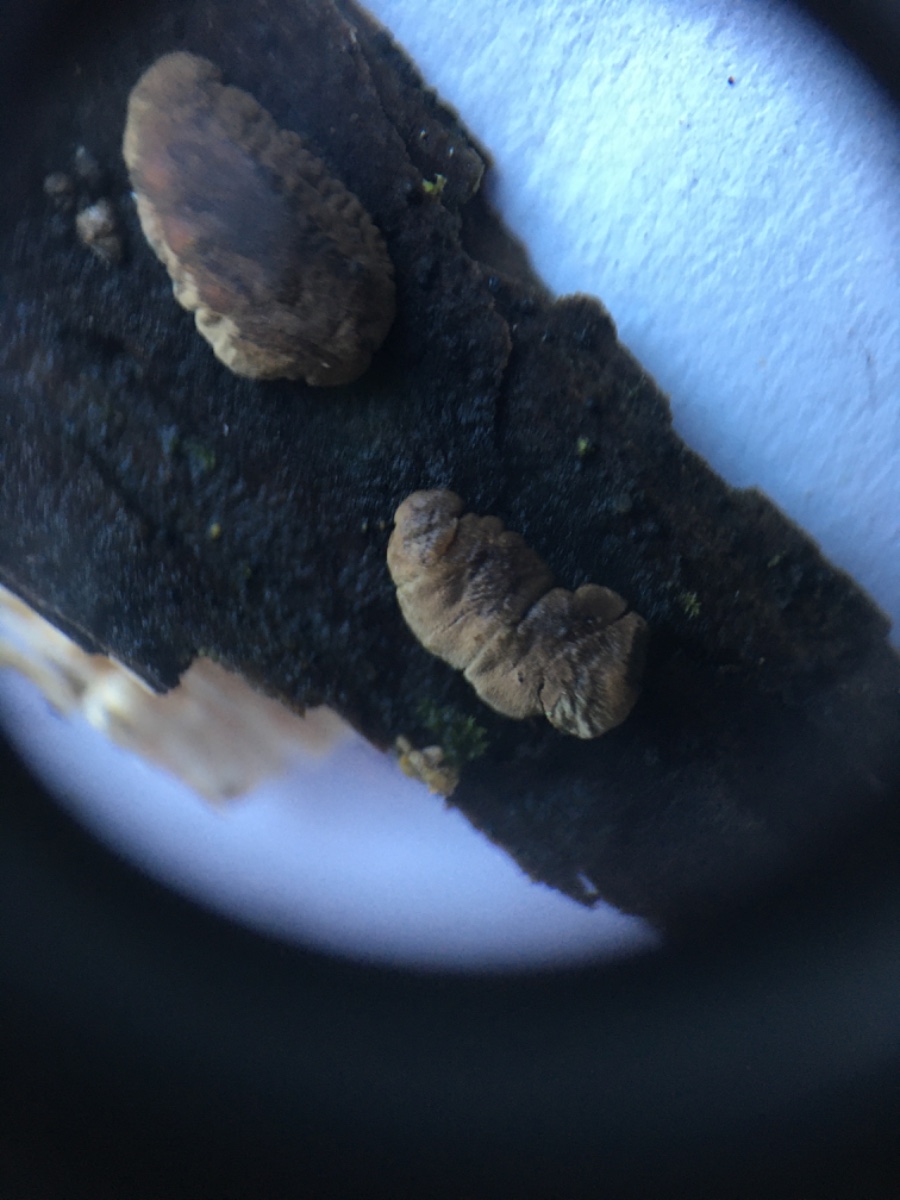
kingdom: Fungi
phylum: Ascomycota
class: Sordariomycetes
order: Xylariales
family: Hypoxylaceae
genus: Jackrogersella
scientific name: Jackrogersella multiformis
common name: foranderlig kulbær
